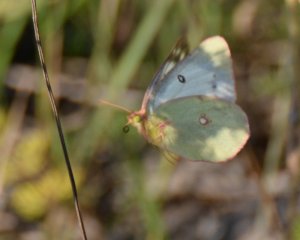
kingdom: Animalia
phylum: Arthropoda
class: Insecta
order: Lepidoptera
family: Pieridae
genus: Colias
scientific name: Colias
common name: Clouded Yellows
